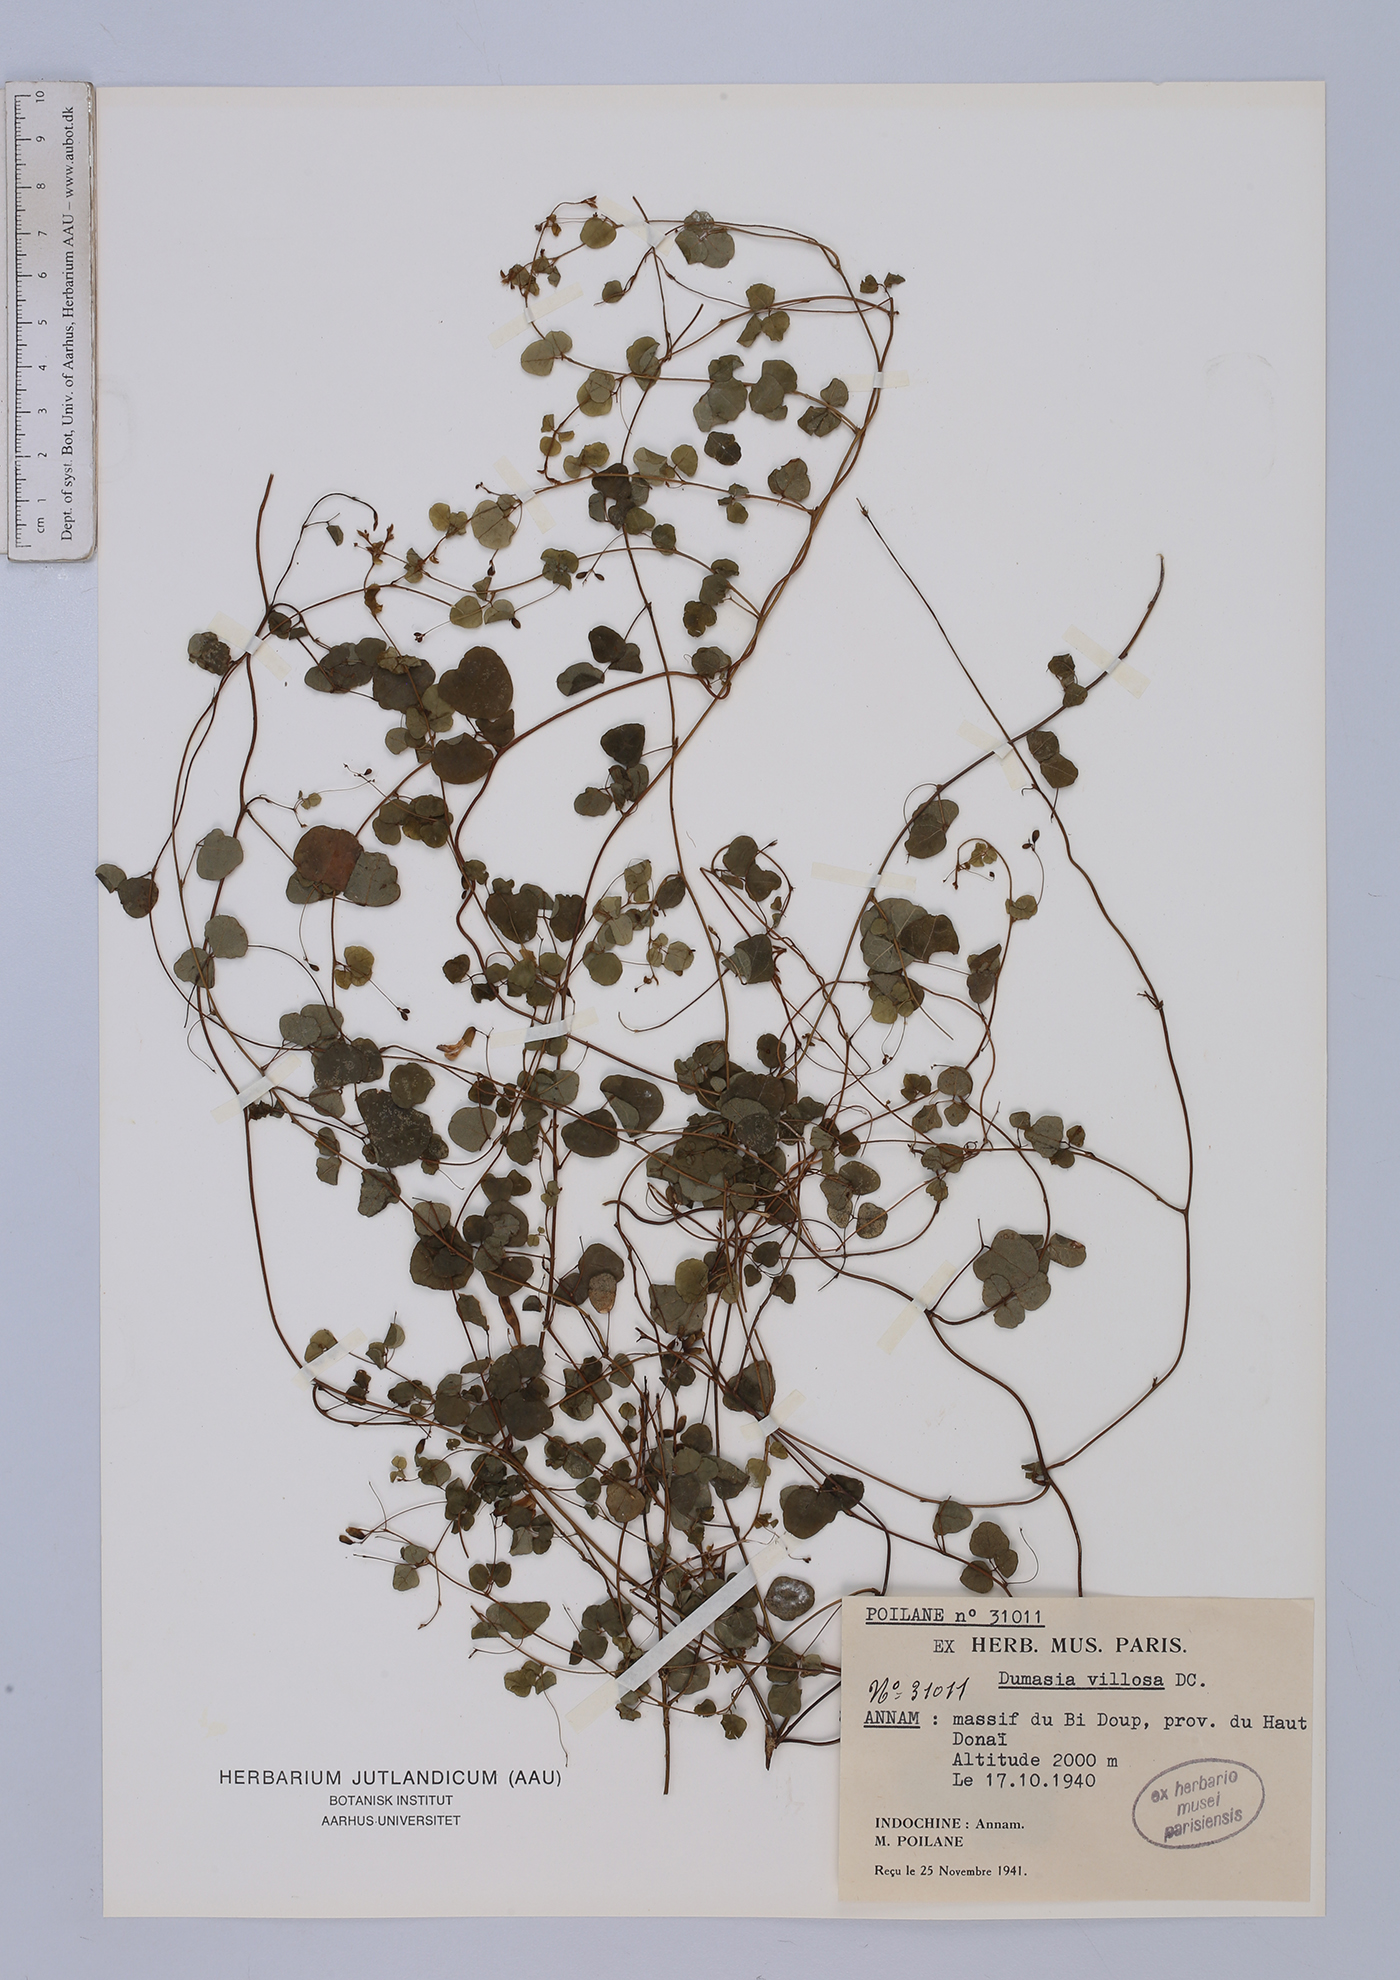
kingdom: Plantae
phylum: Tracheophyta
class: Magnoliopsida
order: Fabales
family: Fabaceae
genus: Dumasia
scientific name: Dumasia villosa
